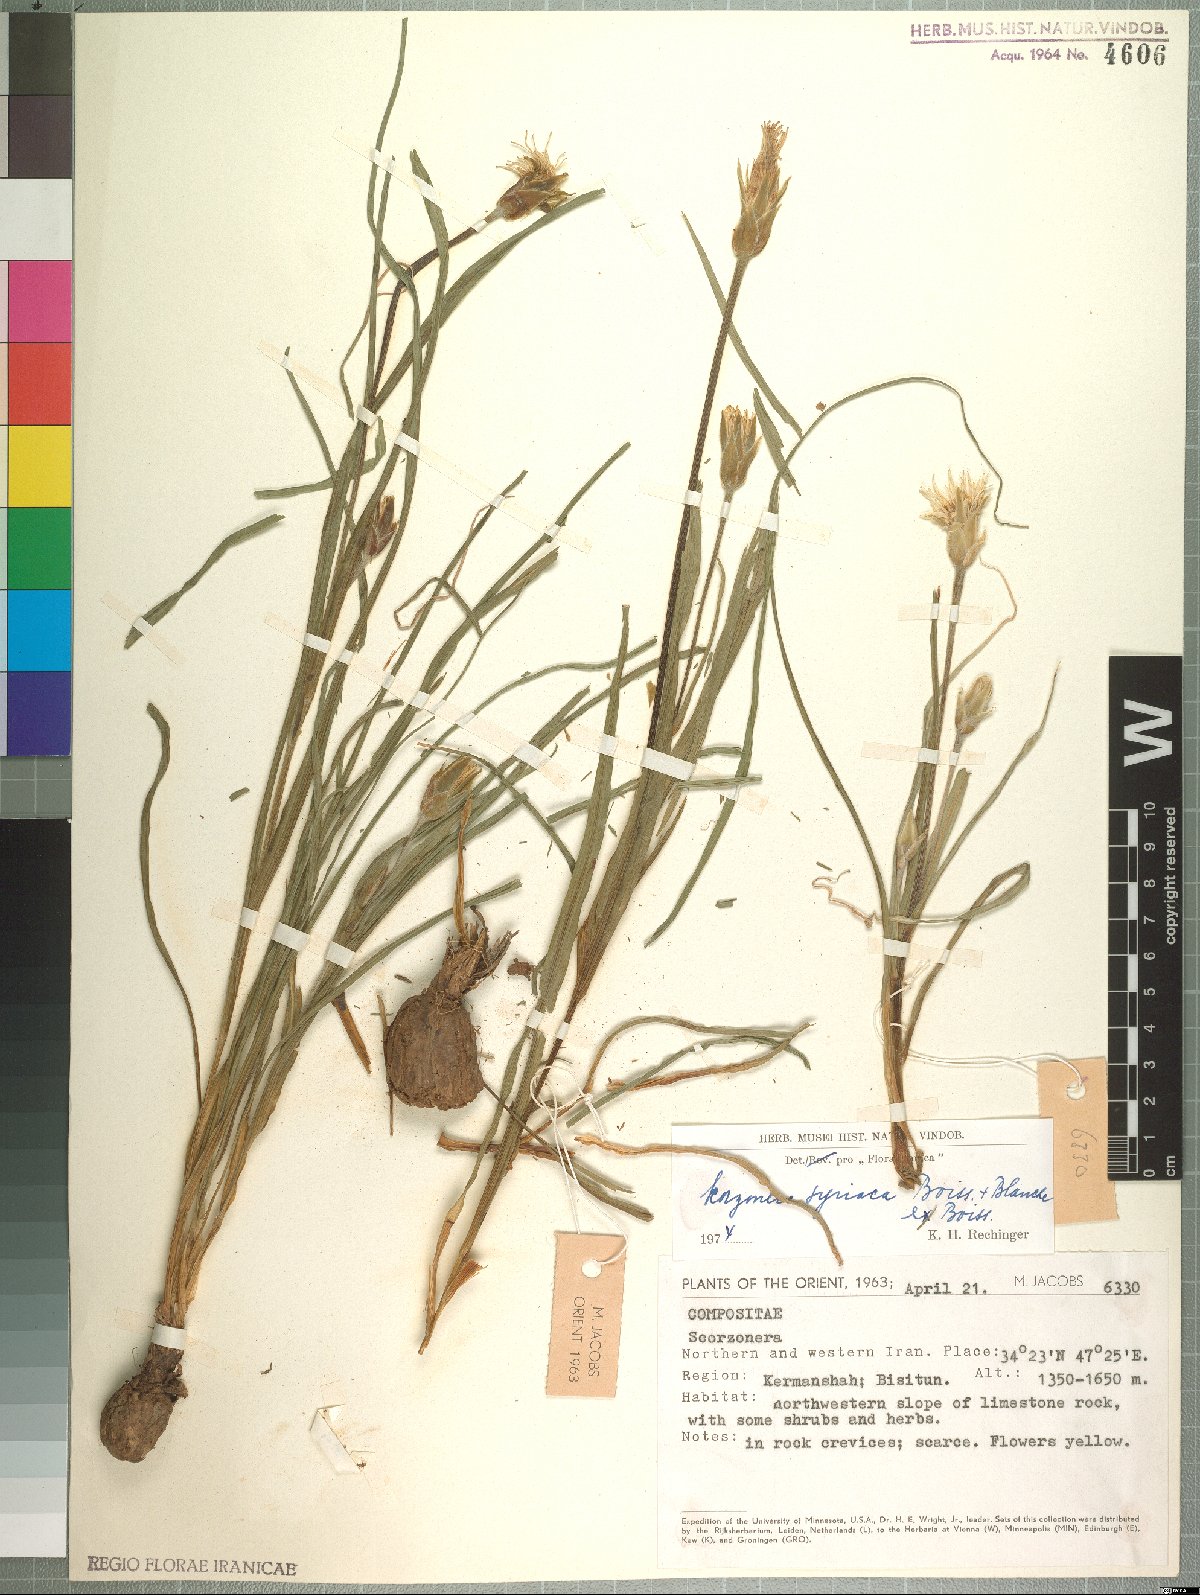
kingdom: Plantae
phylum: Tracheophyta
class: Magnoliopsida
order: Asterales
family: Asteraceae
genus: Candollea
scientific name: Candollea syriaca
